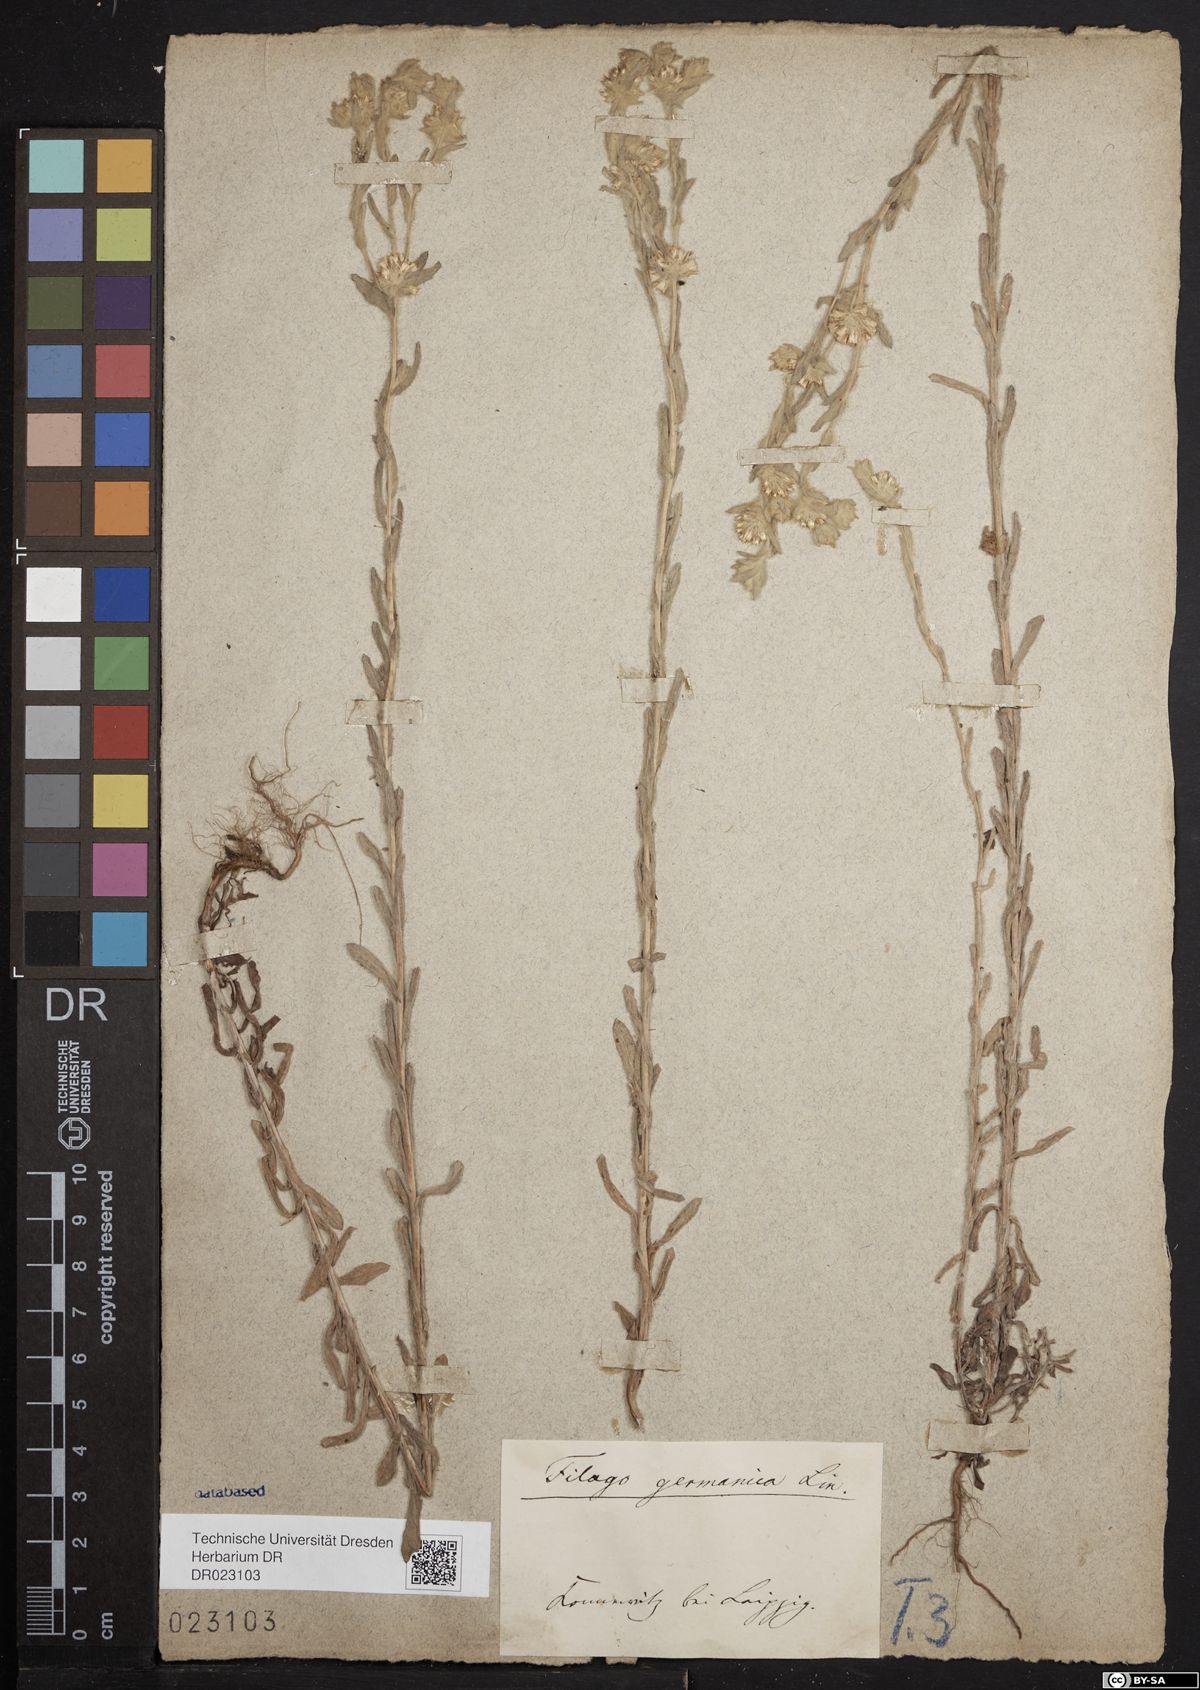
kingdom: Plantae
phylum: Tracheophyta
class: Magnoliopsida
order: Asterales
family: Asteraceae
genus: Filago
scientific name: Filago germanica
